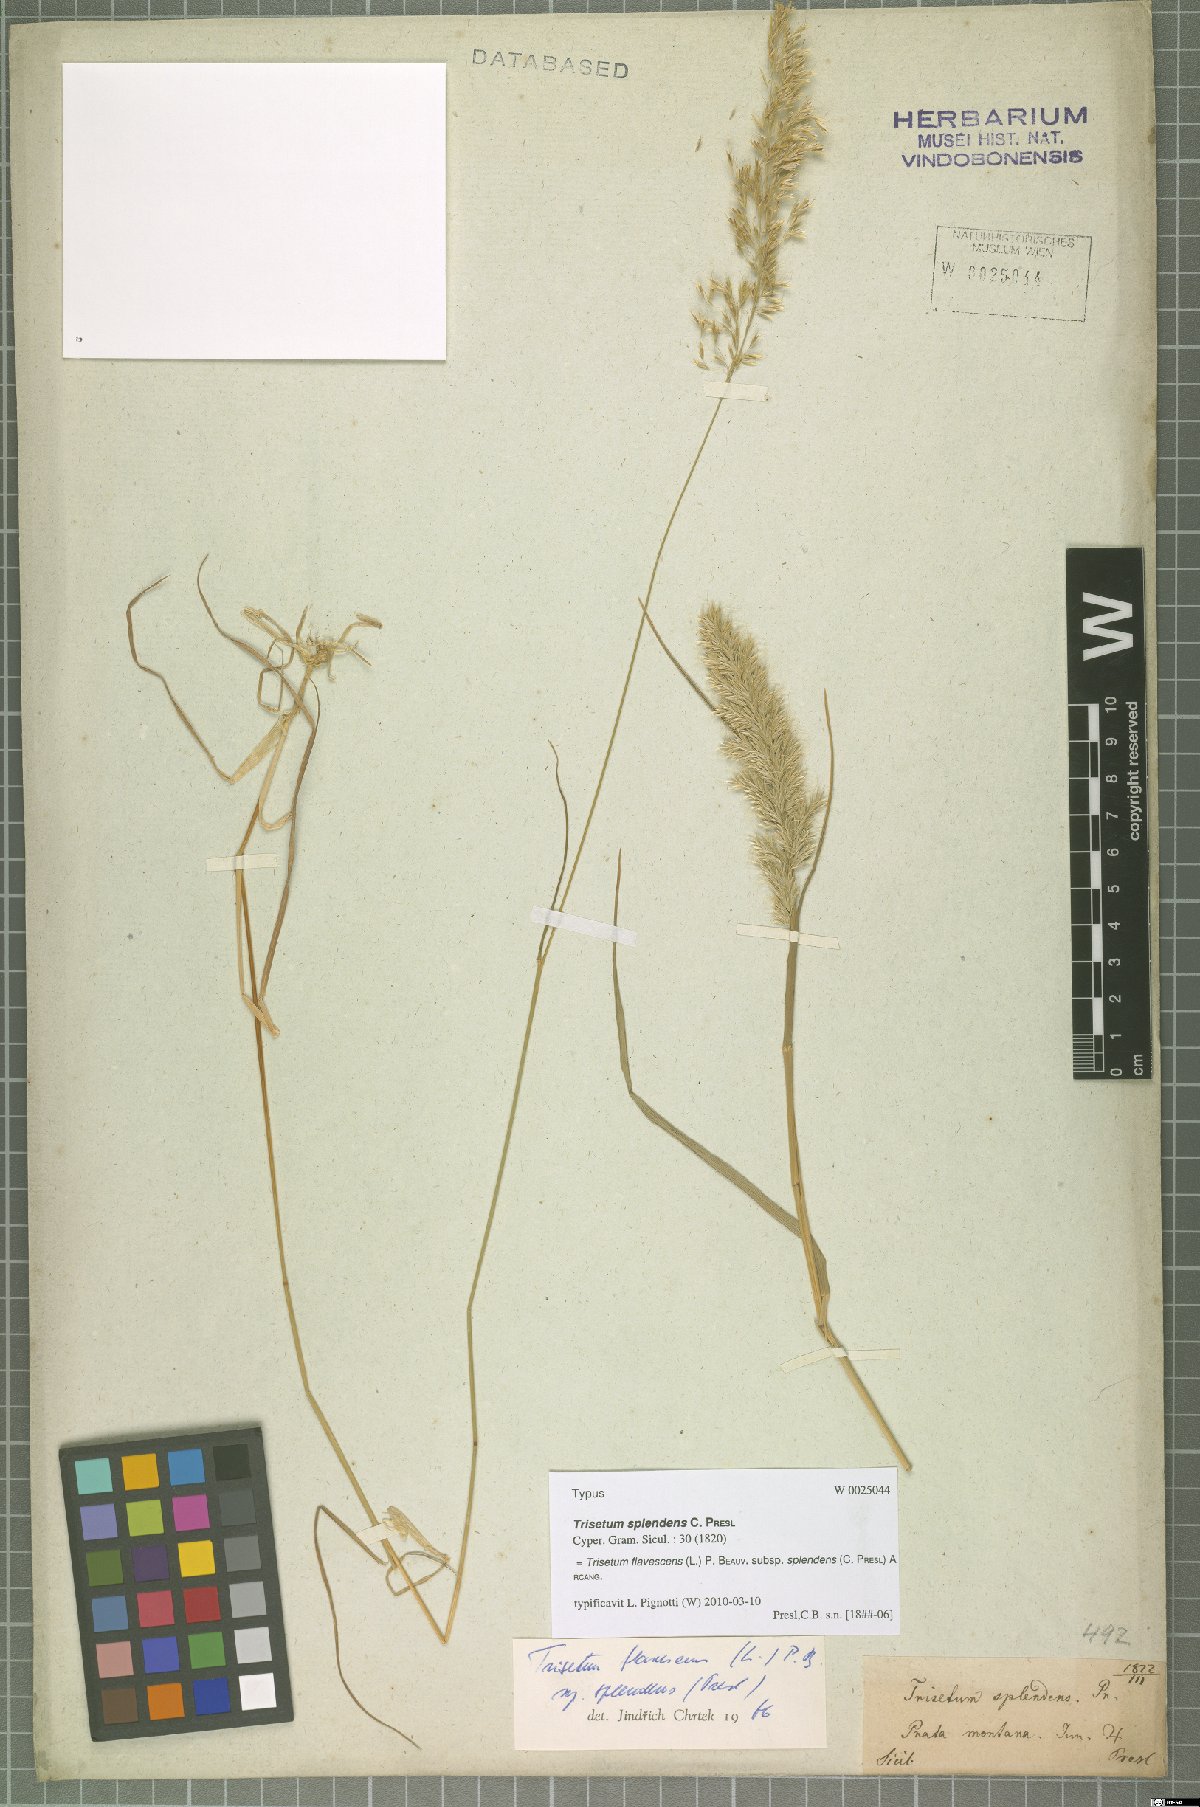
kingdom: Plantae
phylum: Tracheophyta
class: Liliopsida
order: Poales
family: Poaceae
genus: Trisetum
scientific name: Trisetum flavescens
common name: Yellow oat-grass
